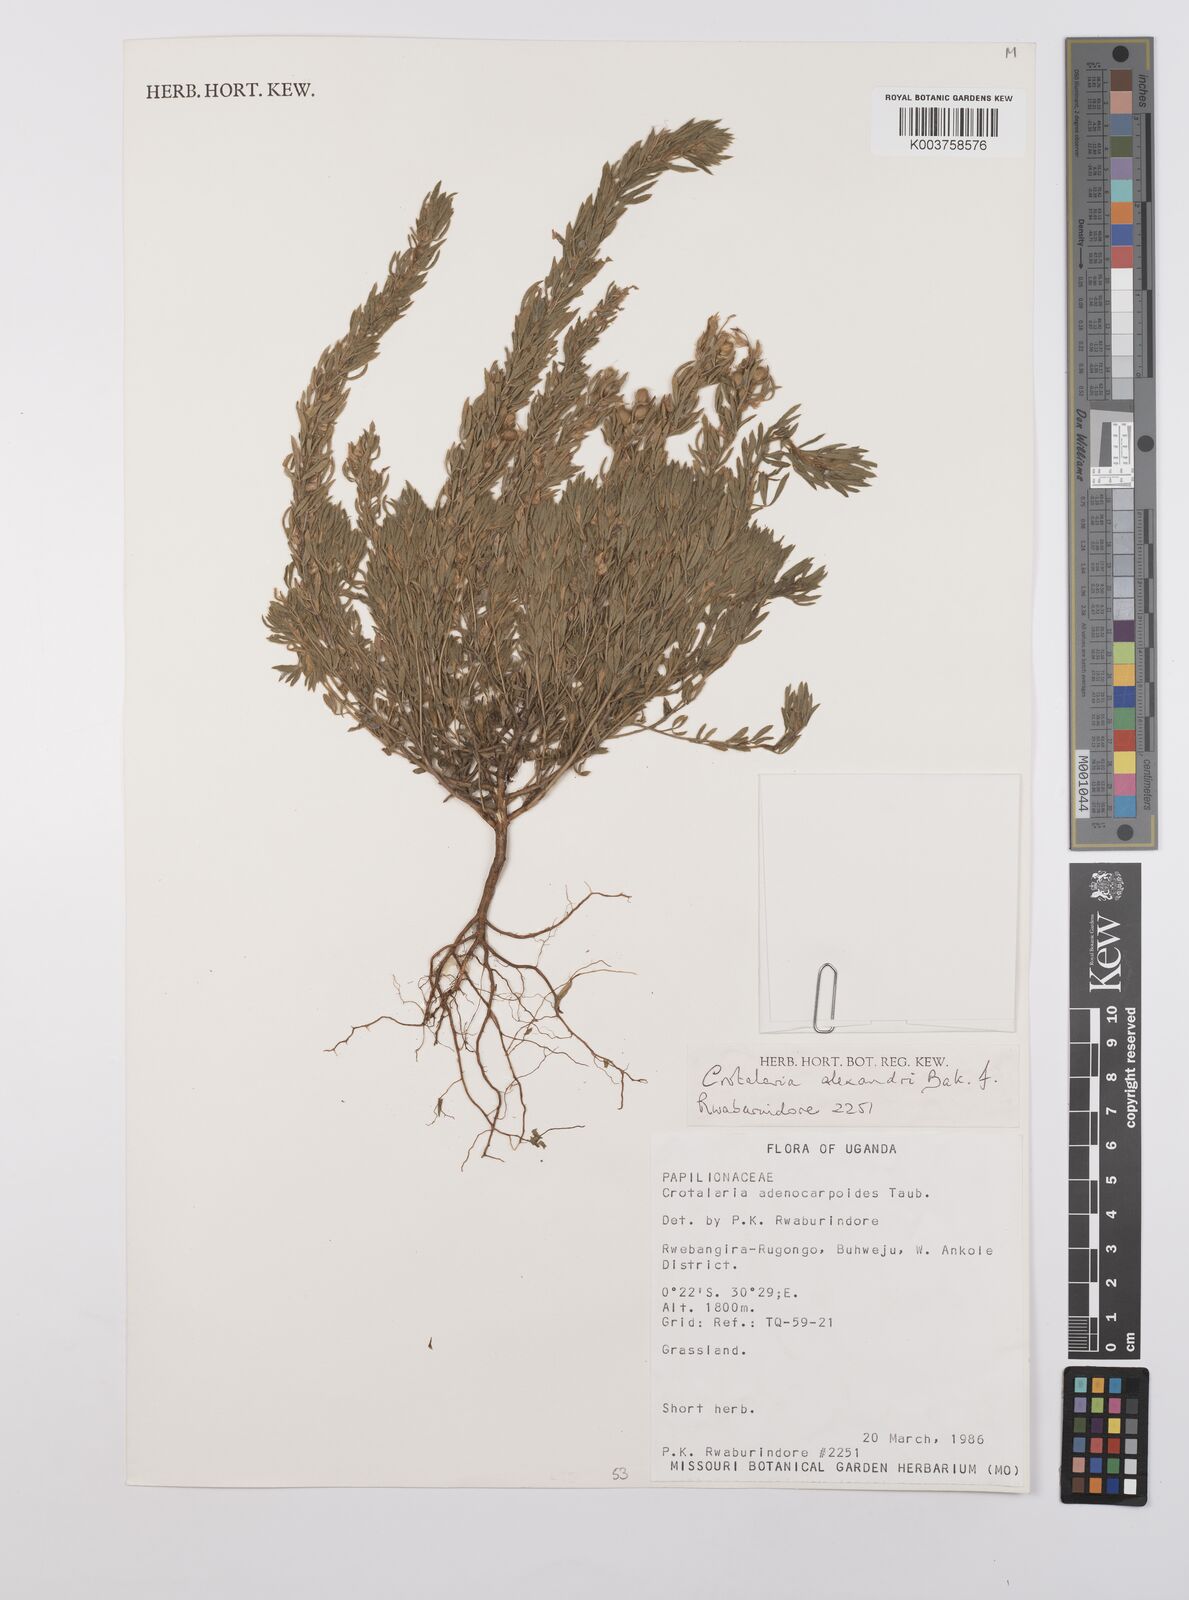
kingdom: Plantae
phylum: Tracheophyta
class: Magnoliopsida
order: Fabales
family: Fabaceae
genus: Crotalaria
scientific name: Crotalaria alexandri
